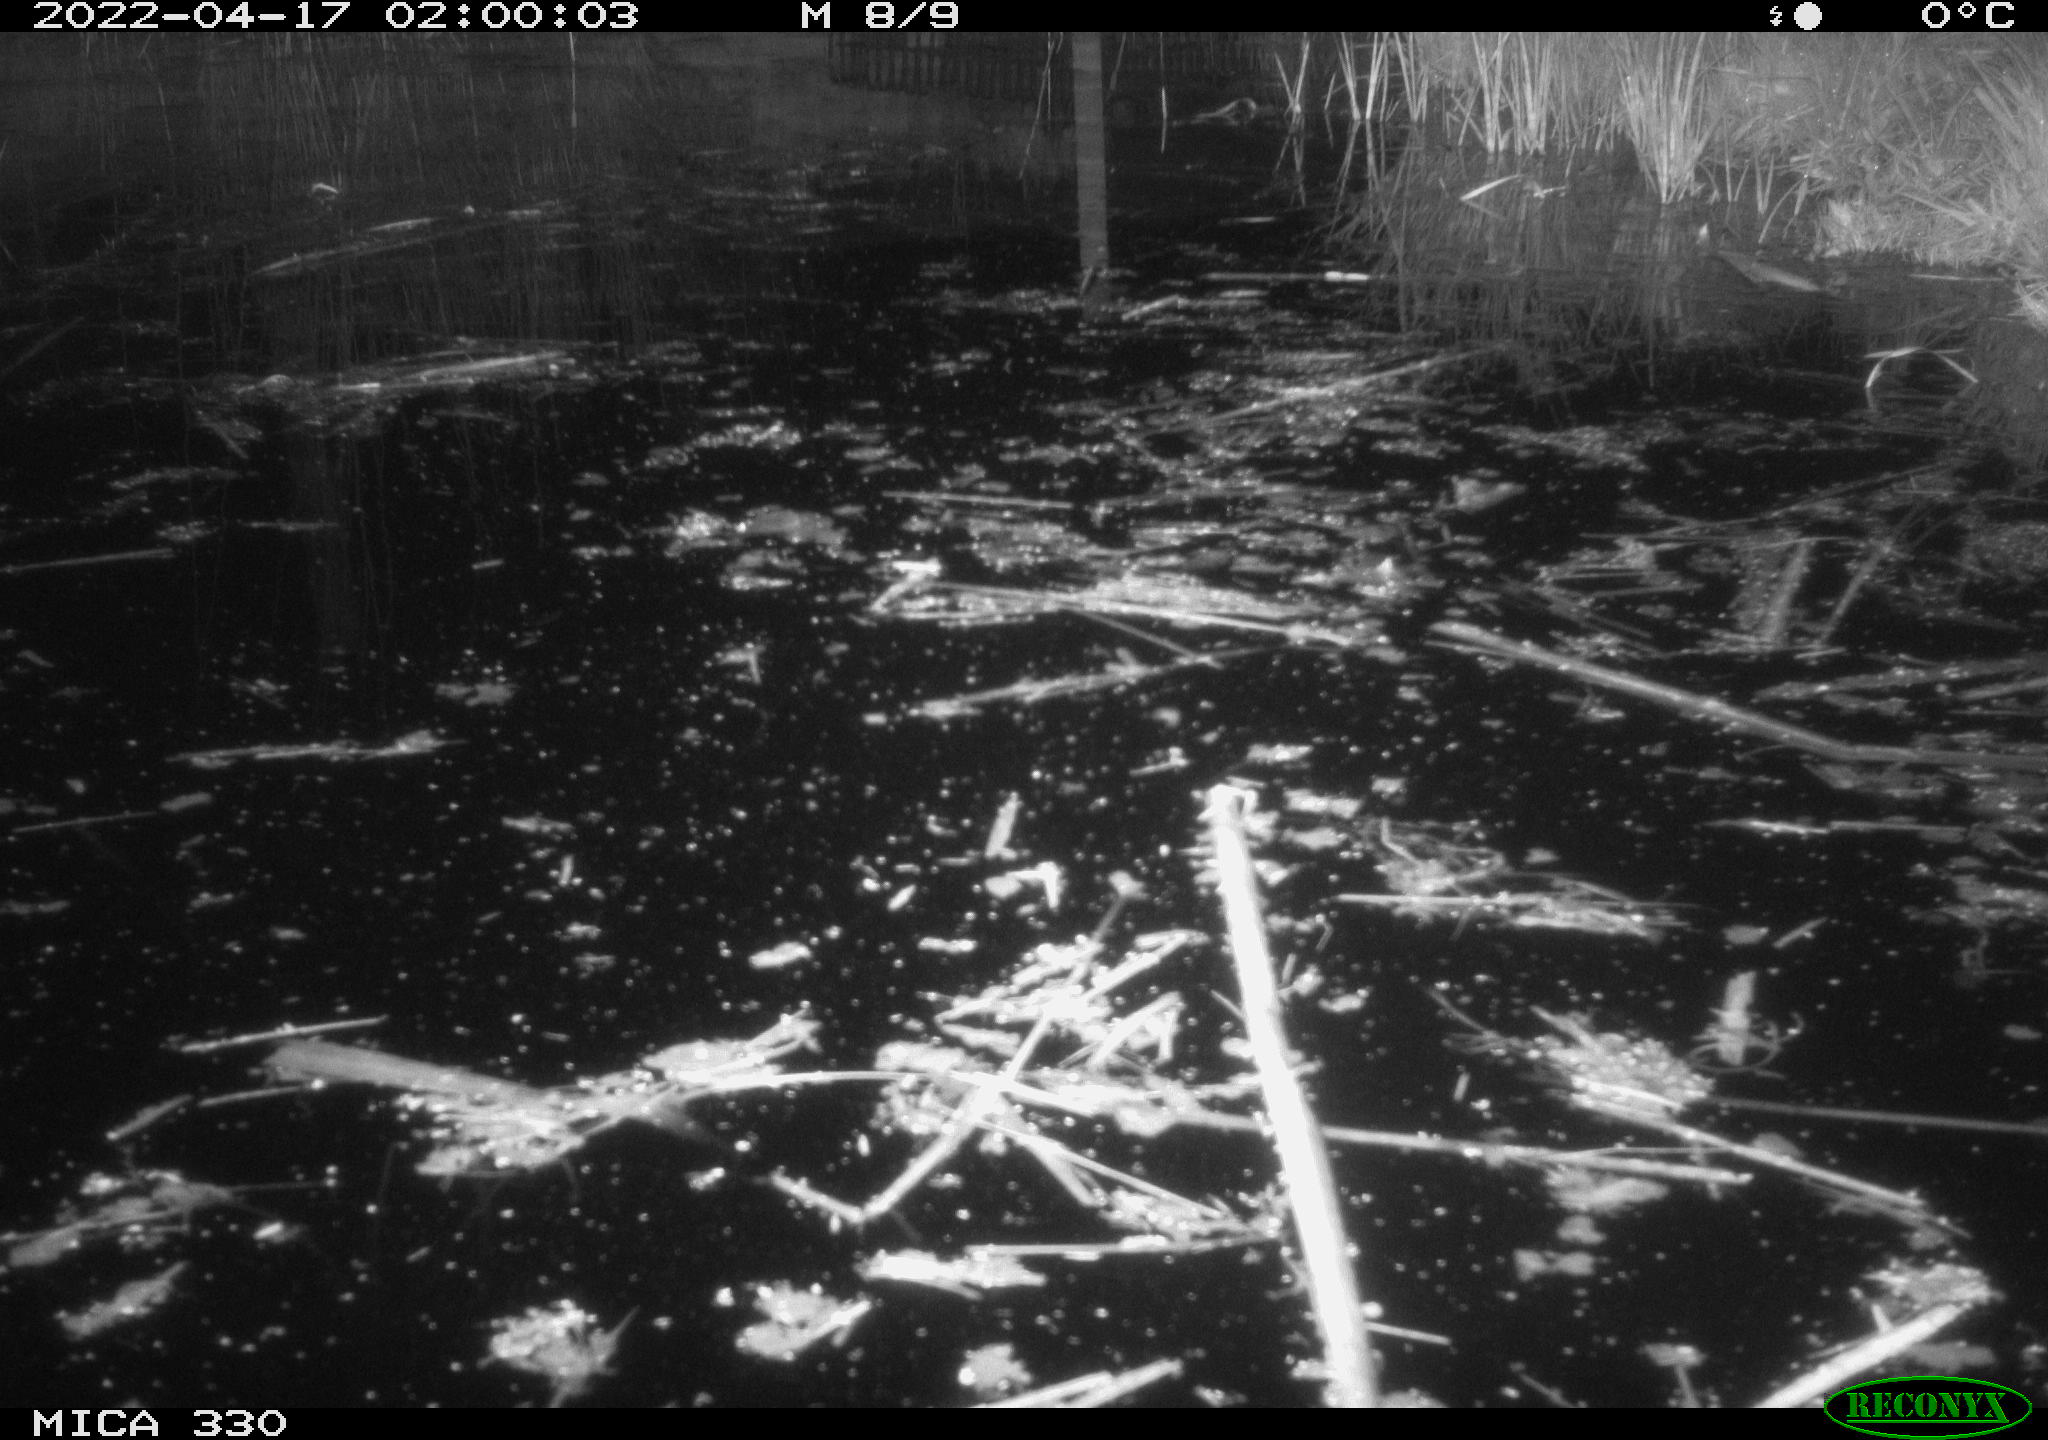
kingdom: Animalia
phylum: Chordata
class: Aves
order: Anseriformes
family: Anatidae
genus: Anas
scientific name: Anas platyrhynchos
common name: Mallard
